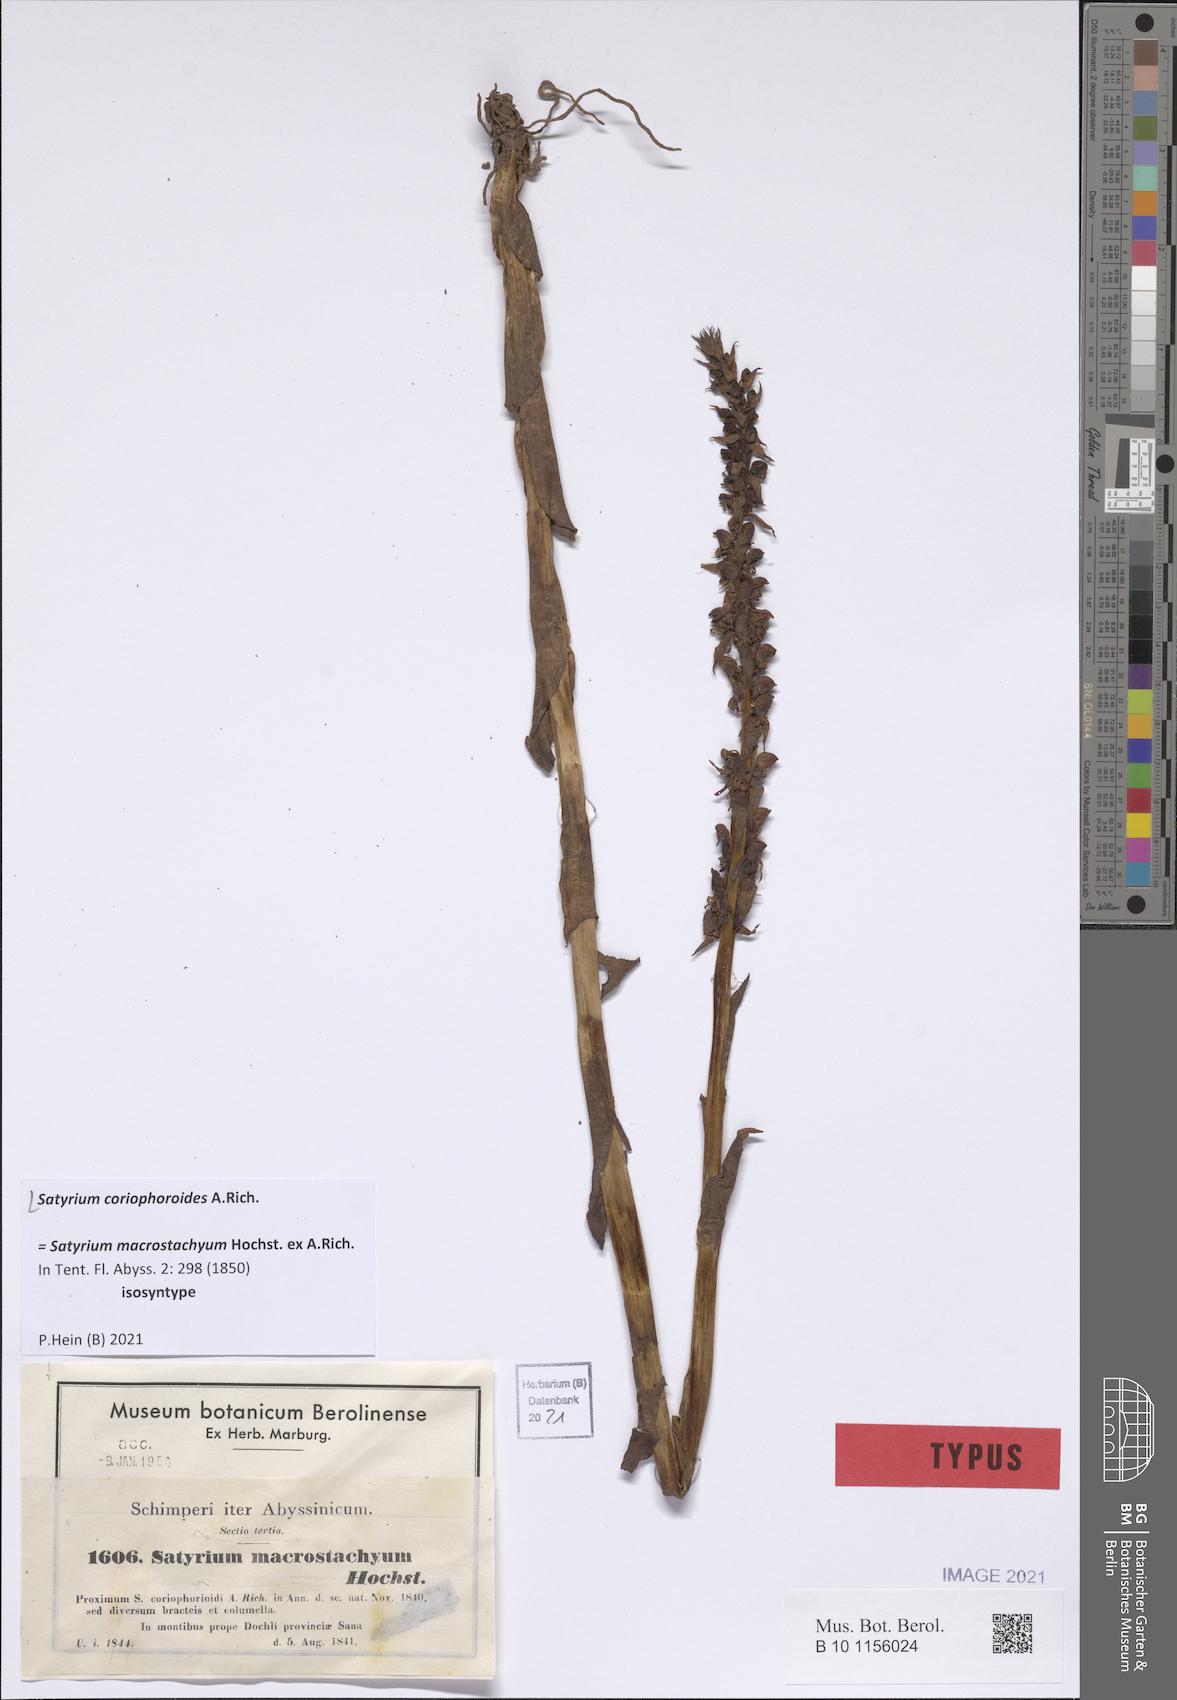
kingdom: Plantae
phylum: Tracheophyta
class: Liliopsida
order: Asparagales
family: Orchidaceae
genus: Satyrium
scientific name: Satyrium coriophoroides
